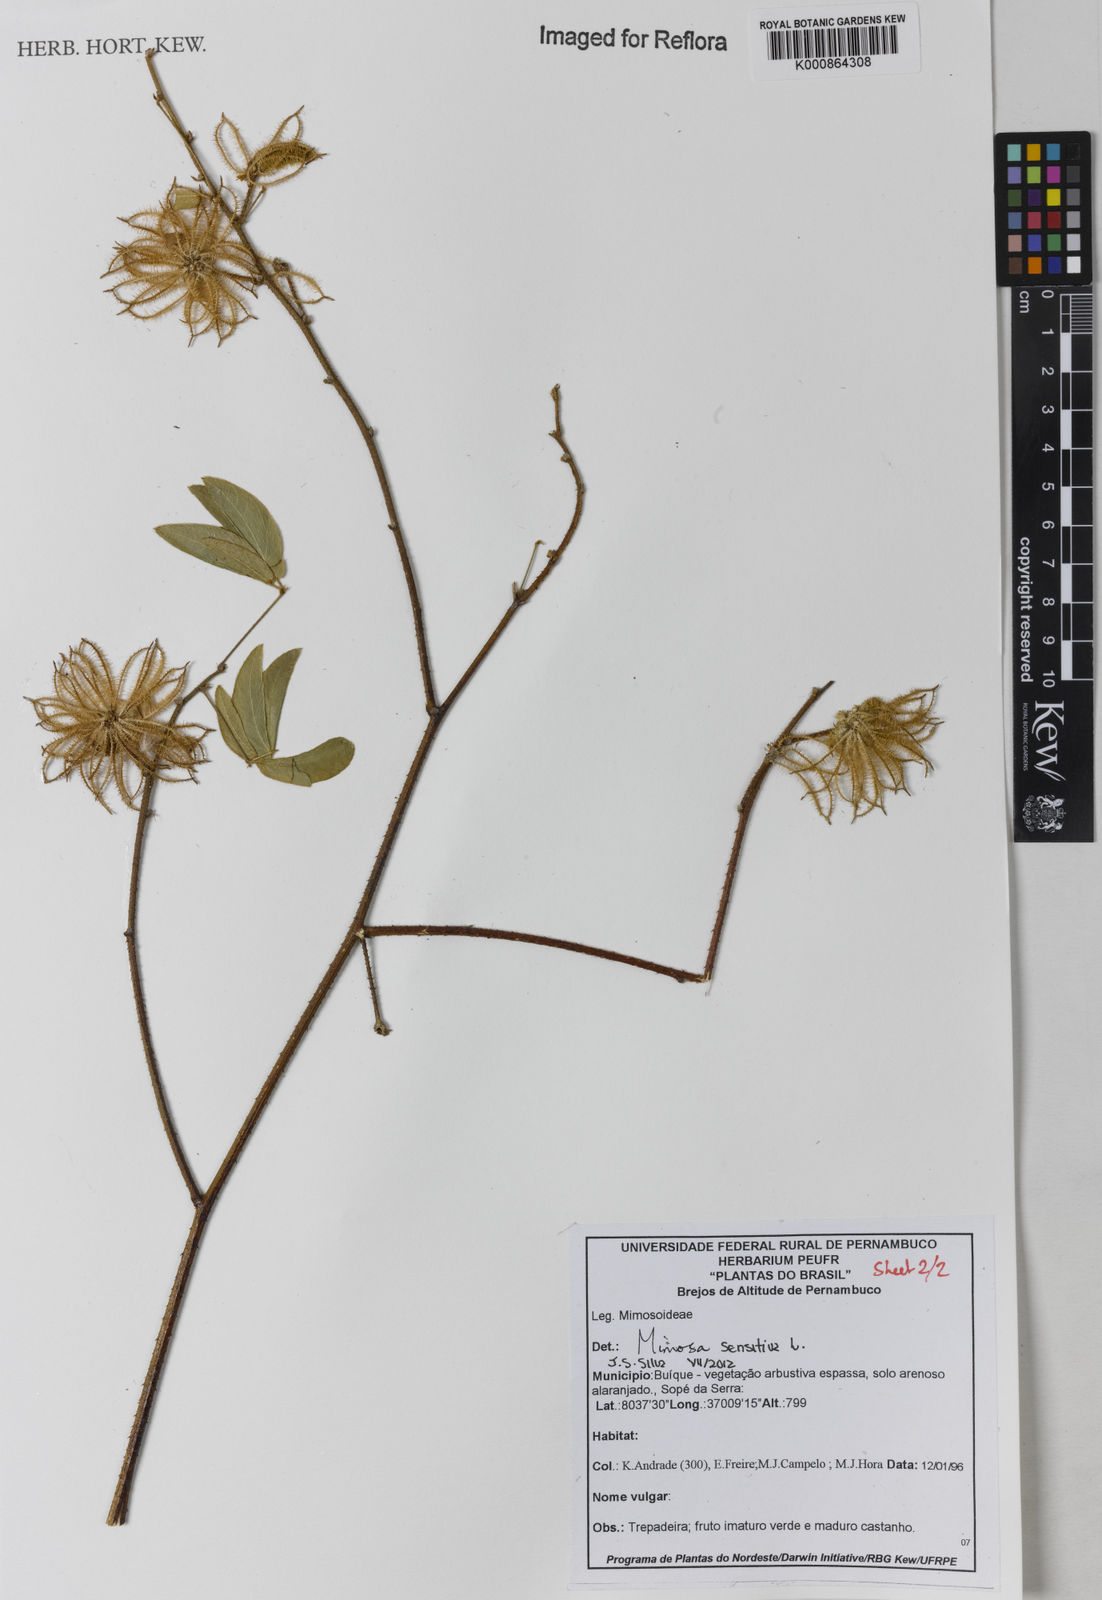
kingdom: Plantae
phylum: Tracheophyta
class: Magnoliopsida
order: Fabales
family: Fabaceae
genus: Mimosa
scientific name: Mimosa sensitiva
